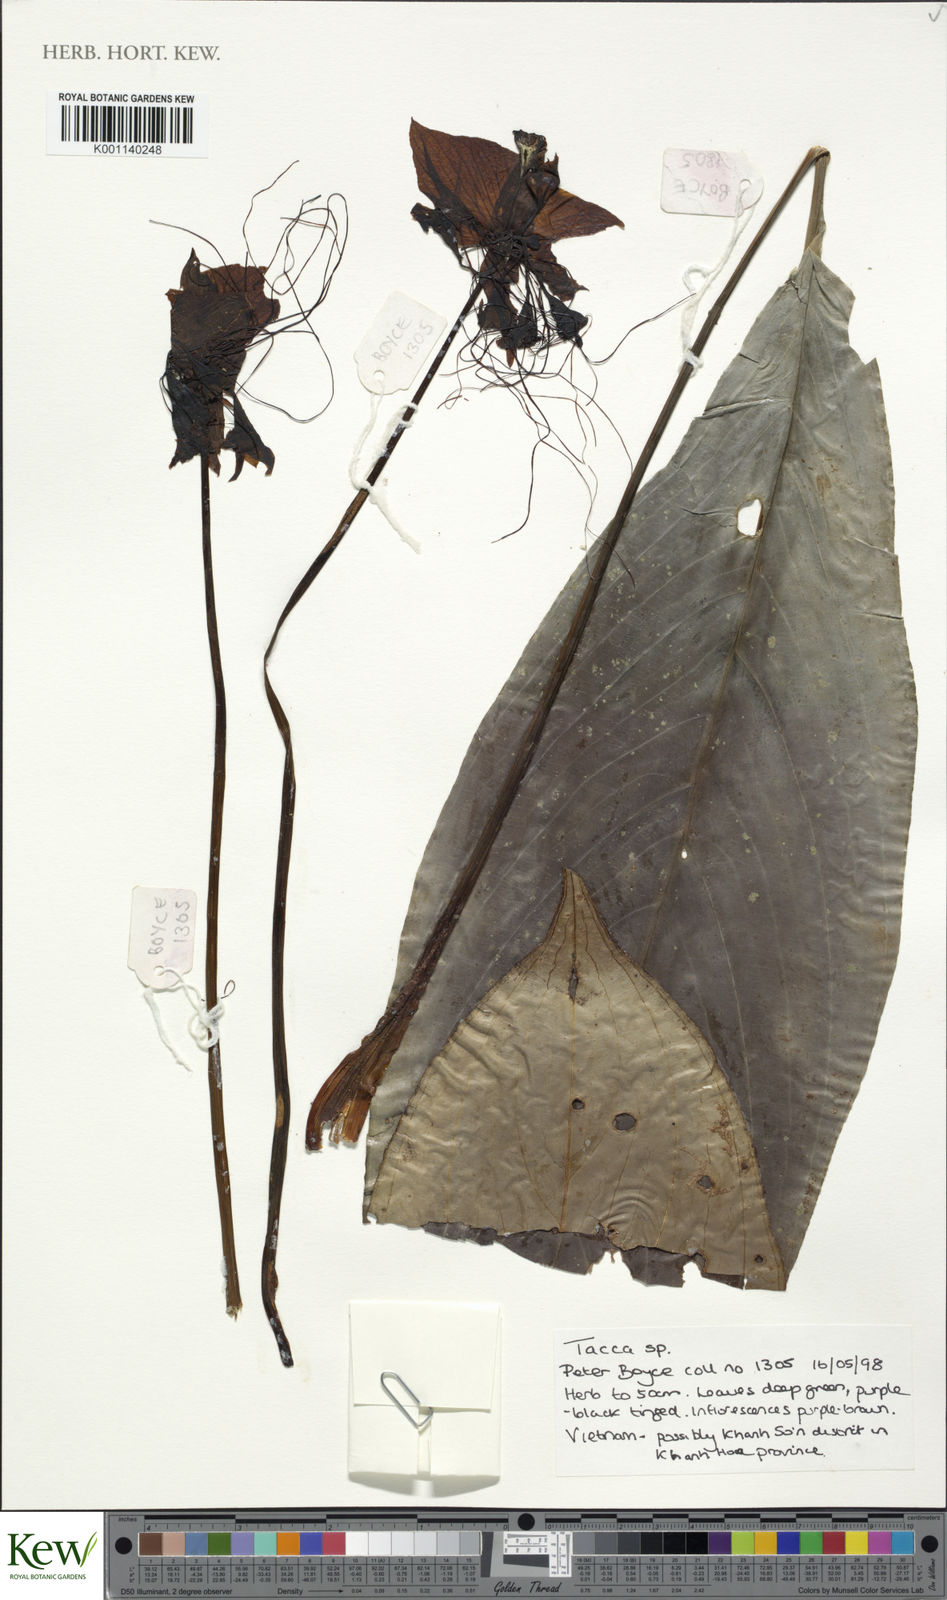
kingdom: Plantae
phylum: Tracheophyta
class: Liliopsida
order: Dioscoreales
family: Dioscoreaceae
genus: Tacca
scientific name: Tacca
